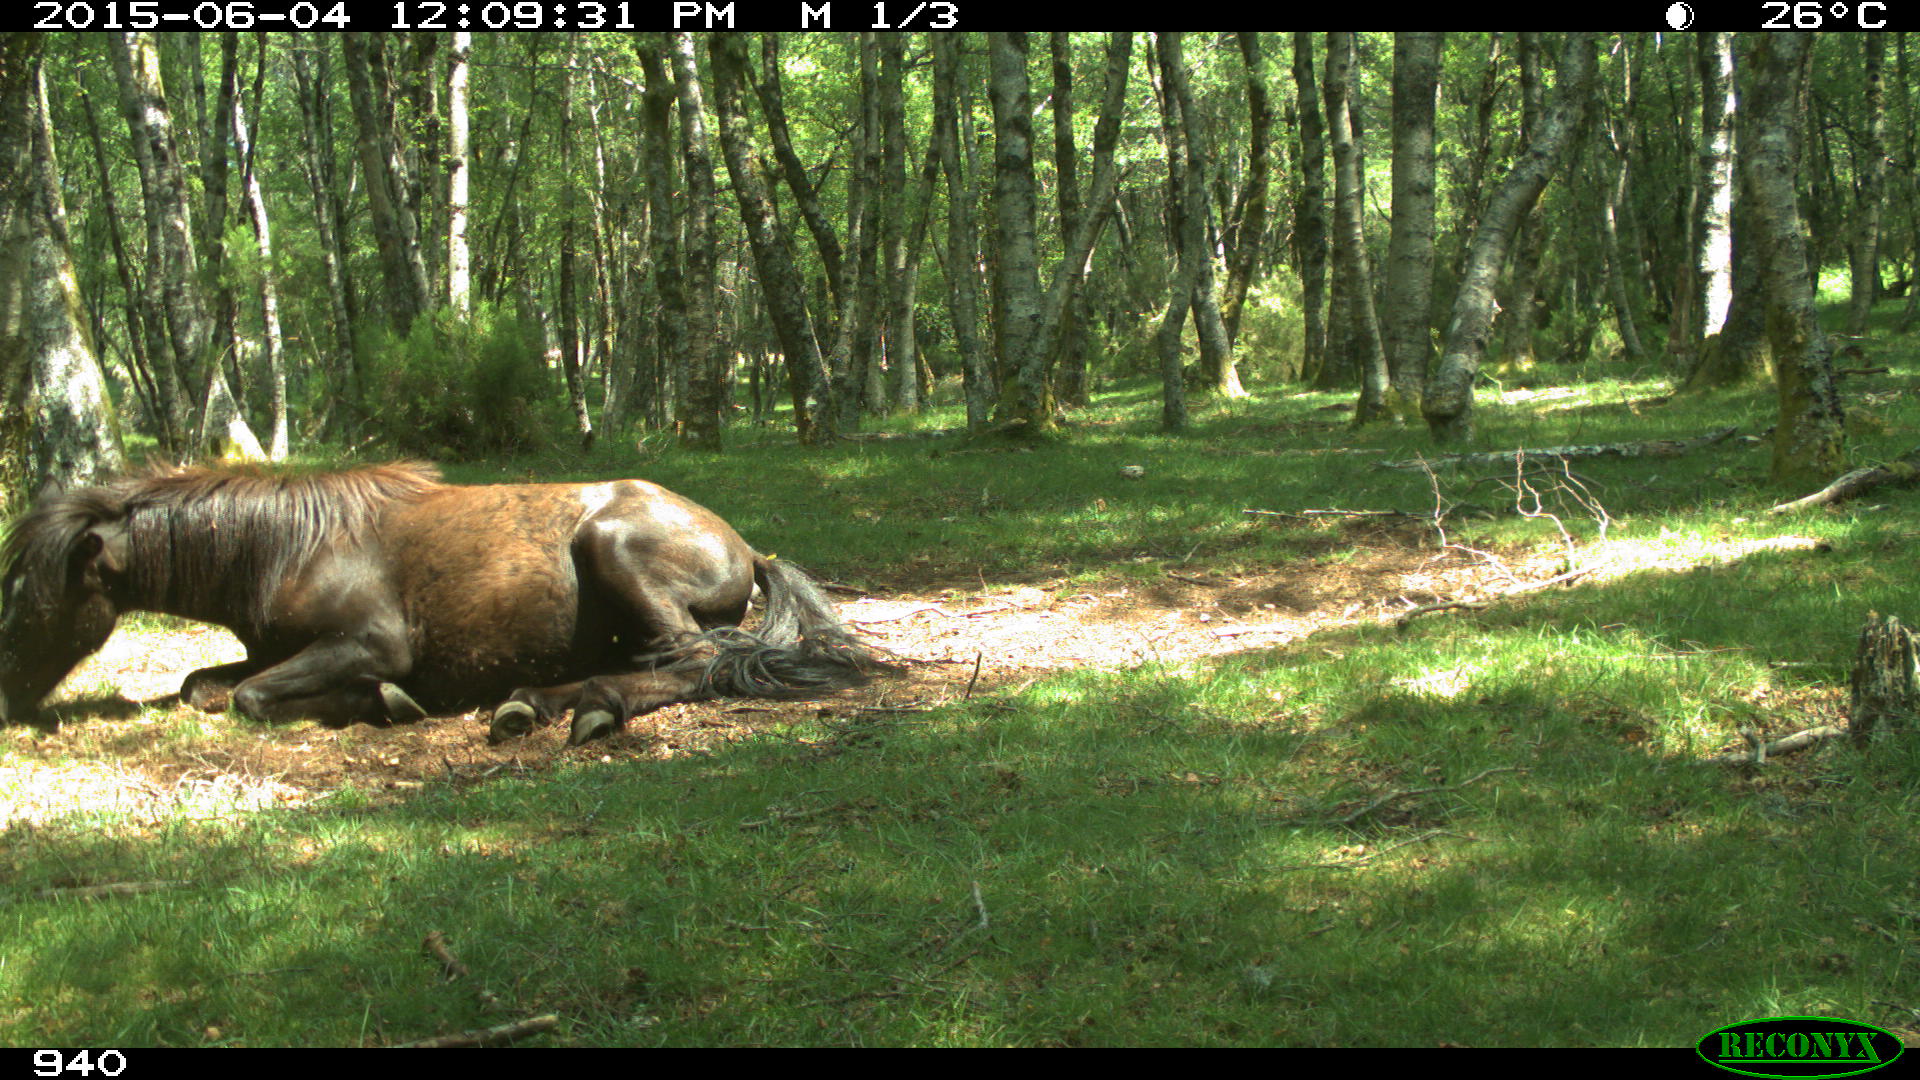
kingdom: Animalia
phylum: Chordata
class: Mammalia
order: Perissodactyla
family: Equidae
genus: Equus
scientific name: Equus caballus
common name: Horse
